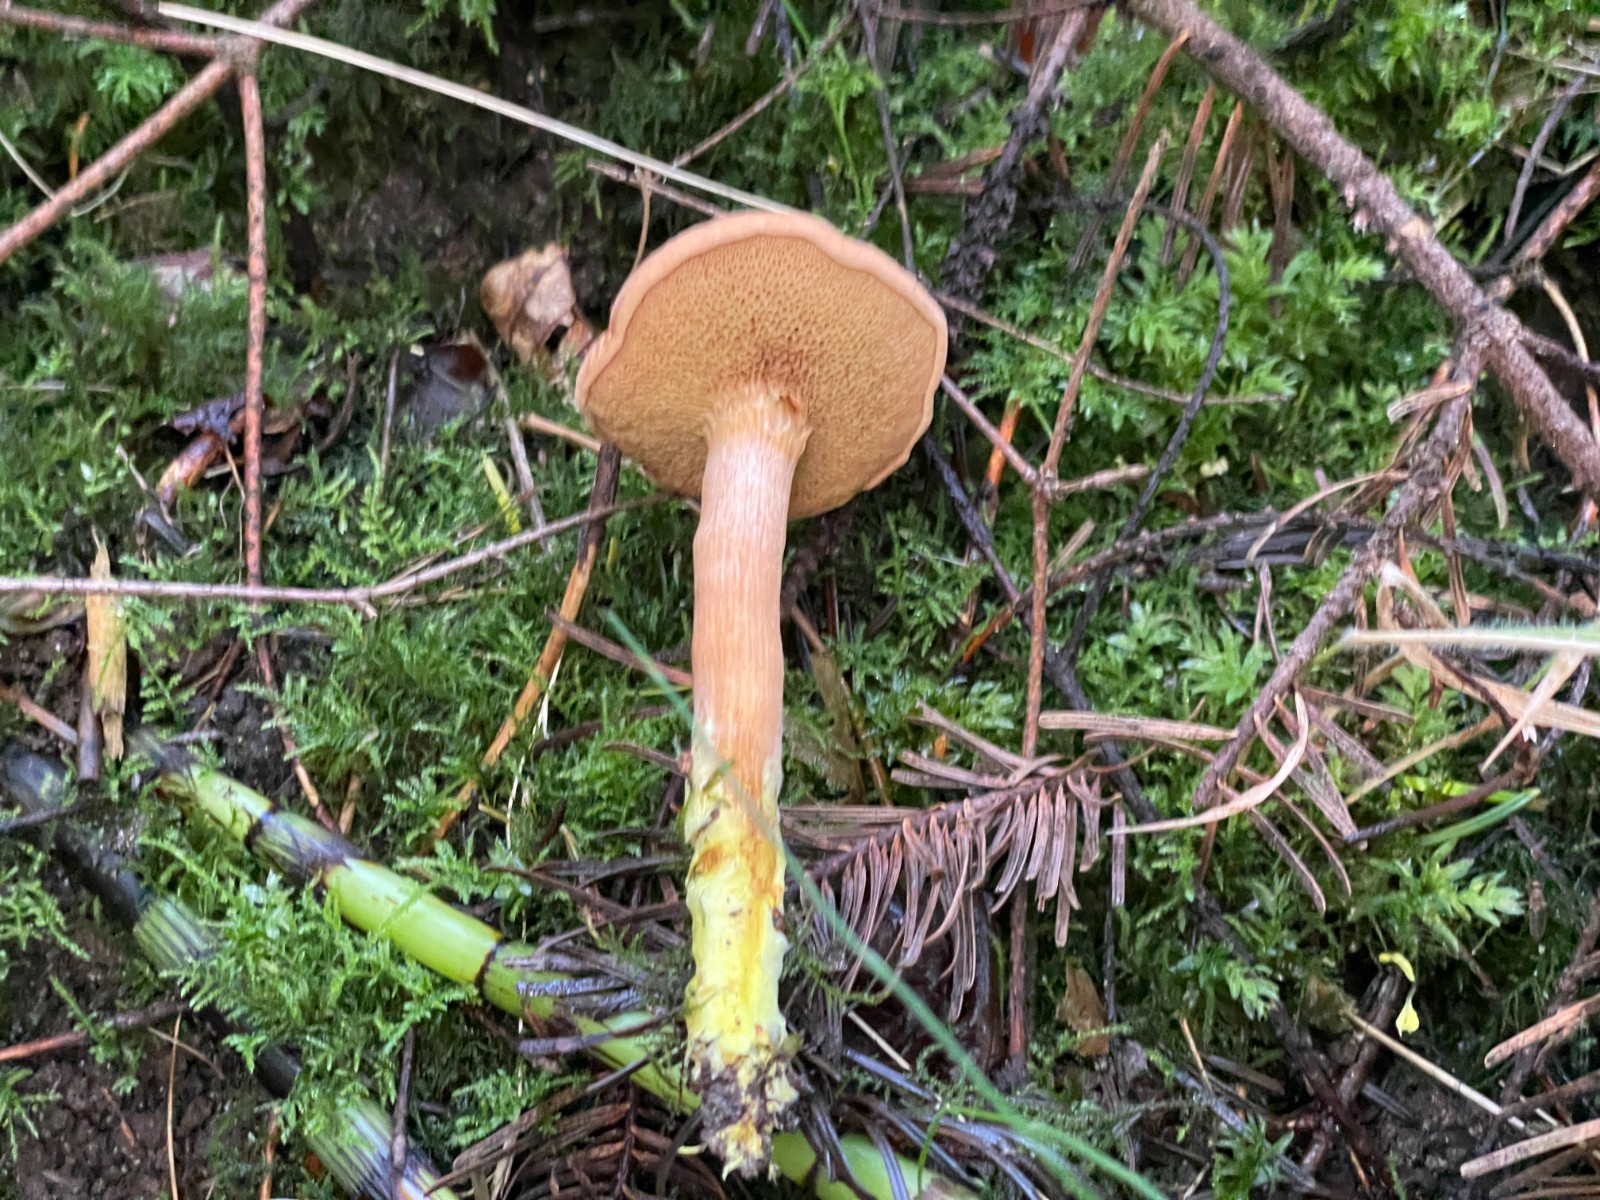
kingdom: Fungi
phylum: Basidiomycota
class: Agaricomycetes
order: Boletales
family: Boletaceae
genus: Chalciporus
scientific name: Chalciporus piperatus
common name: peberrørhat
